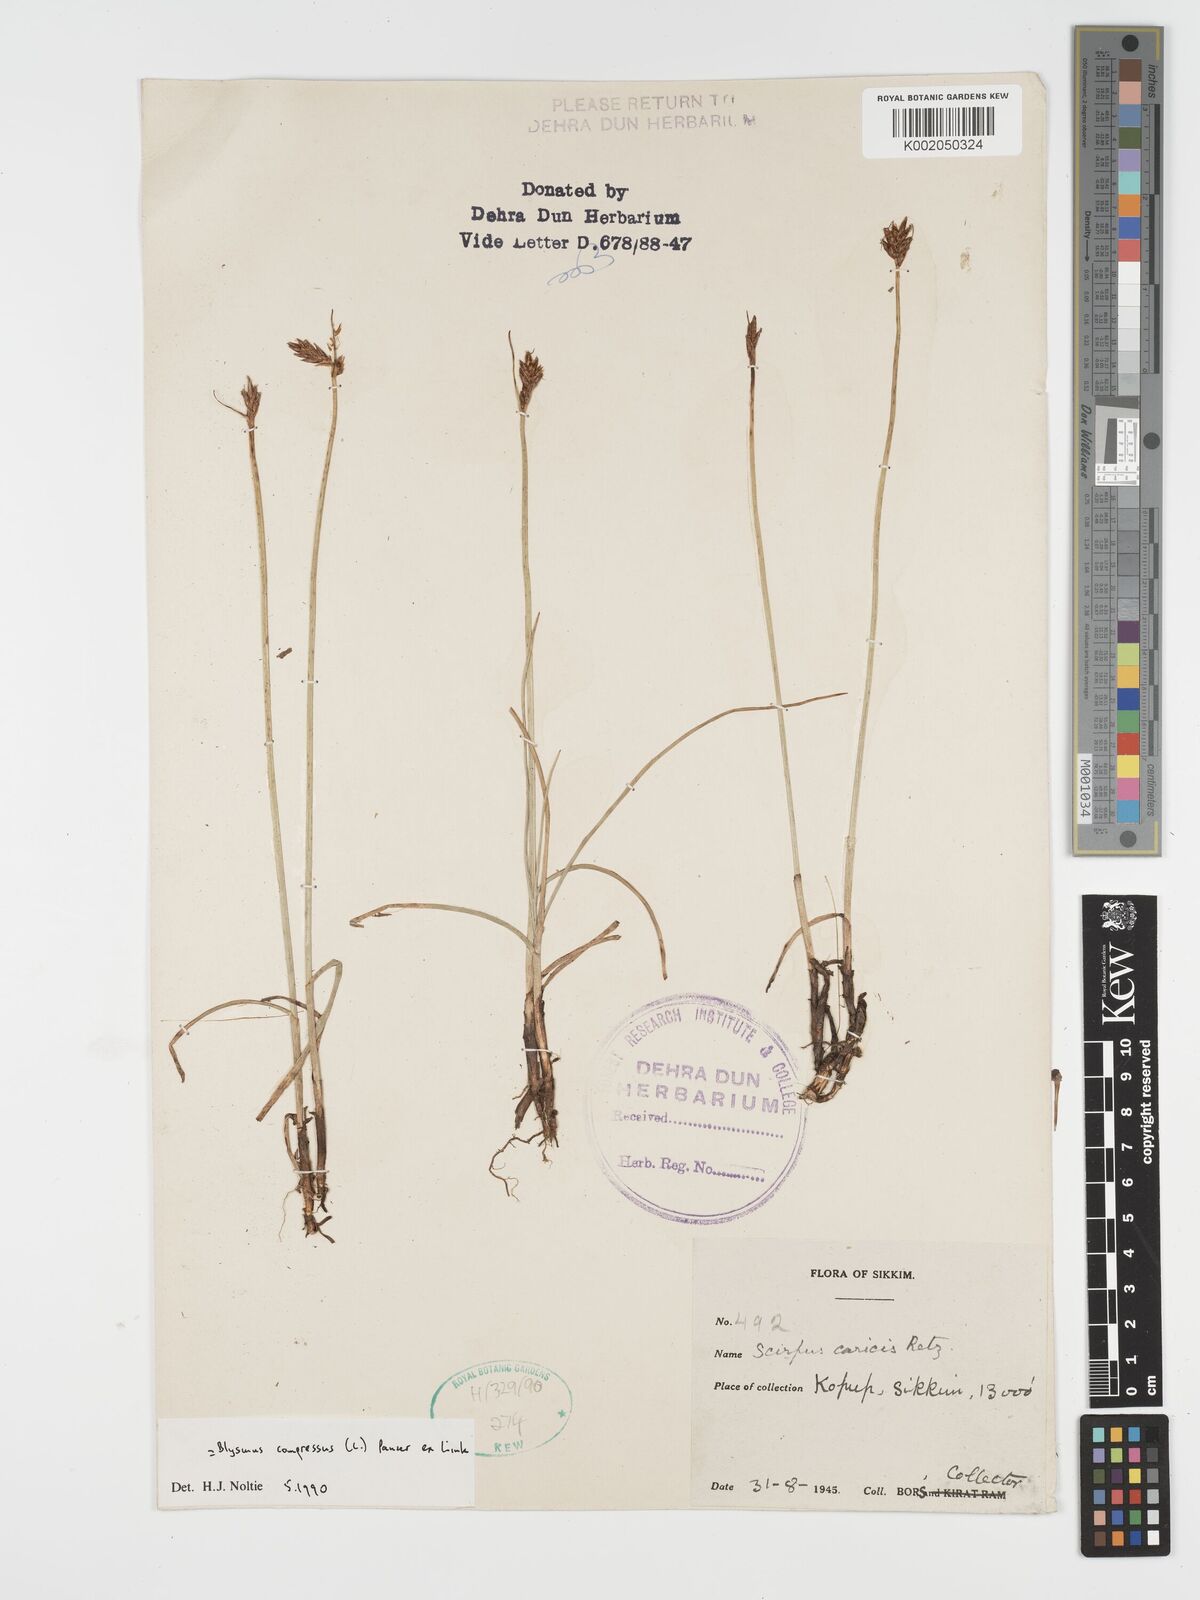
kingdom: Plantae
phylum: Tracheophyta
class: Liliopsida
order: Poales
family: Cyperaceae
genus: Blysmus
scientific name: Blysmus compressus
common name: Flat-sedge
